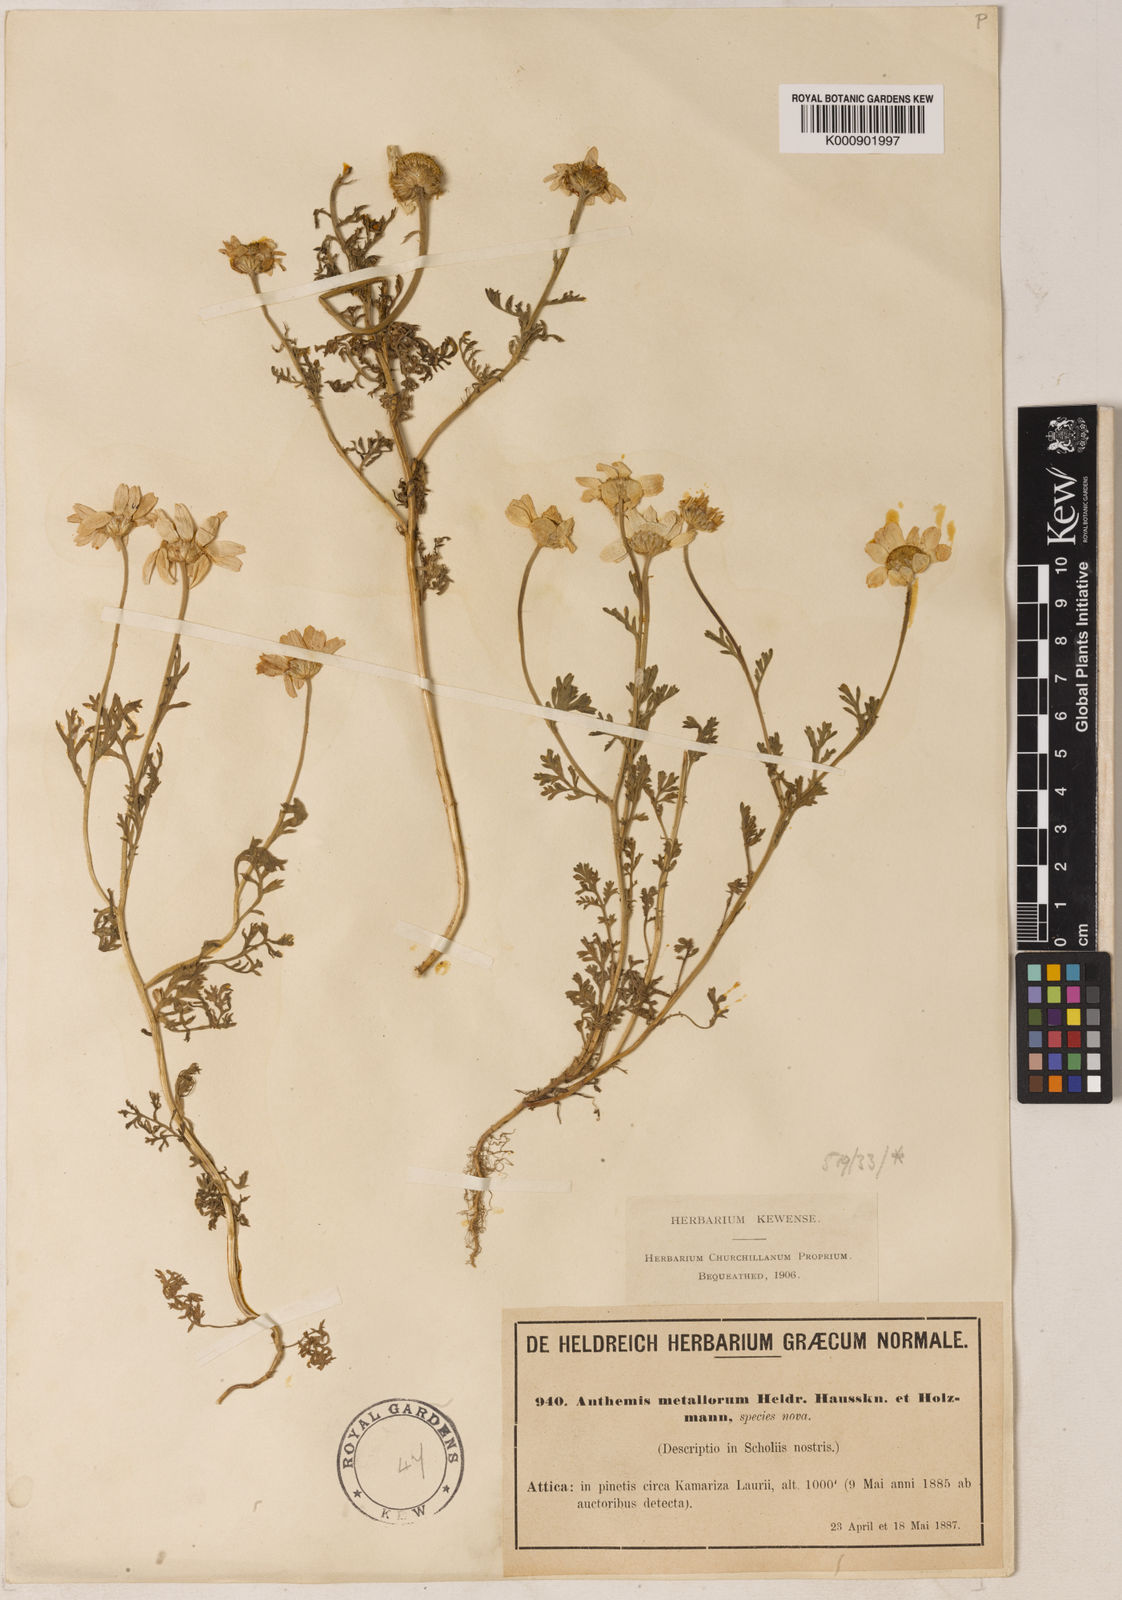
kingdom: Plantae
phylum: Tracheophyta
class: Magnoliopsida
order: Asterales
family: Asteraceae
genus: Anthemis
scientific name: Anthemis tomentosa
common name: Woolly chamomile
